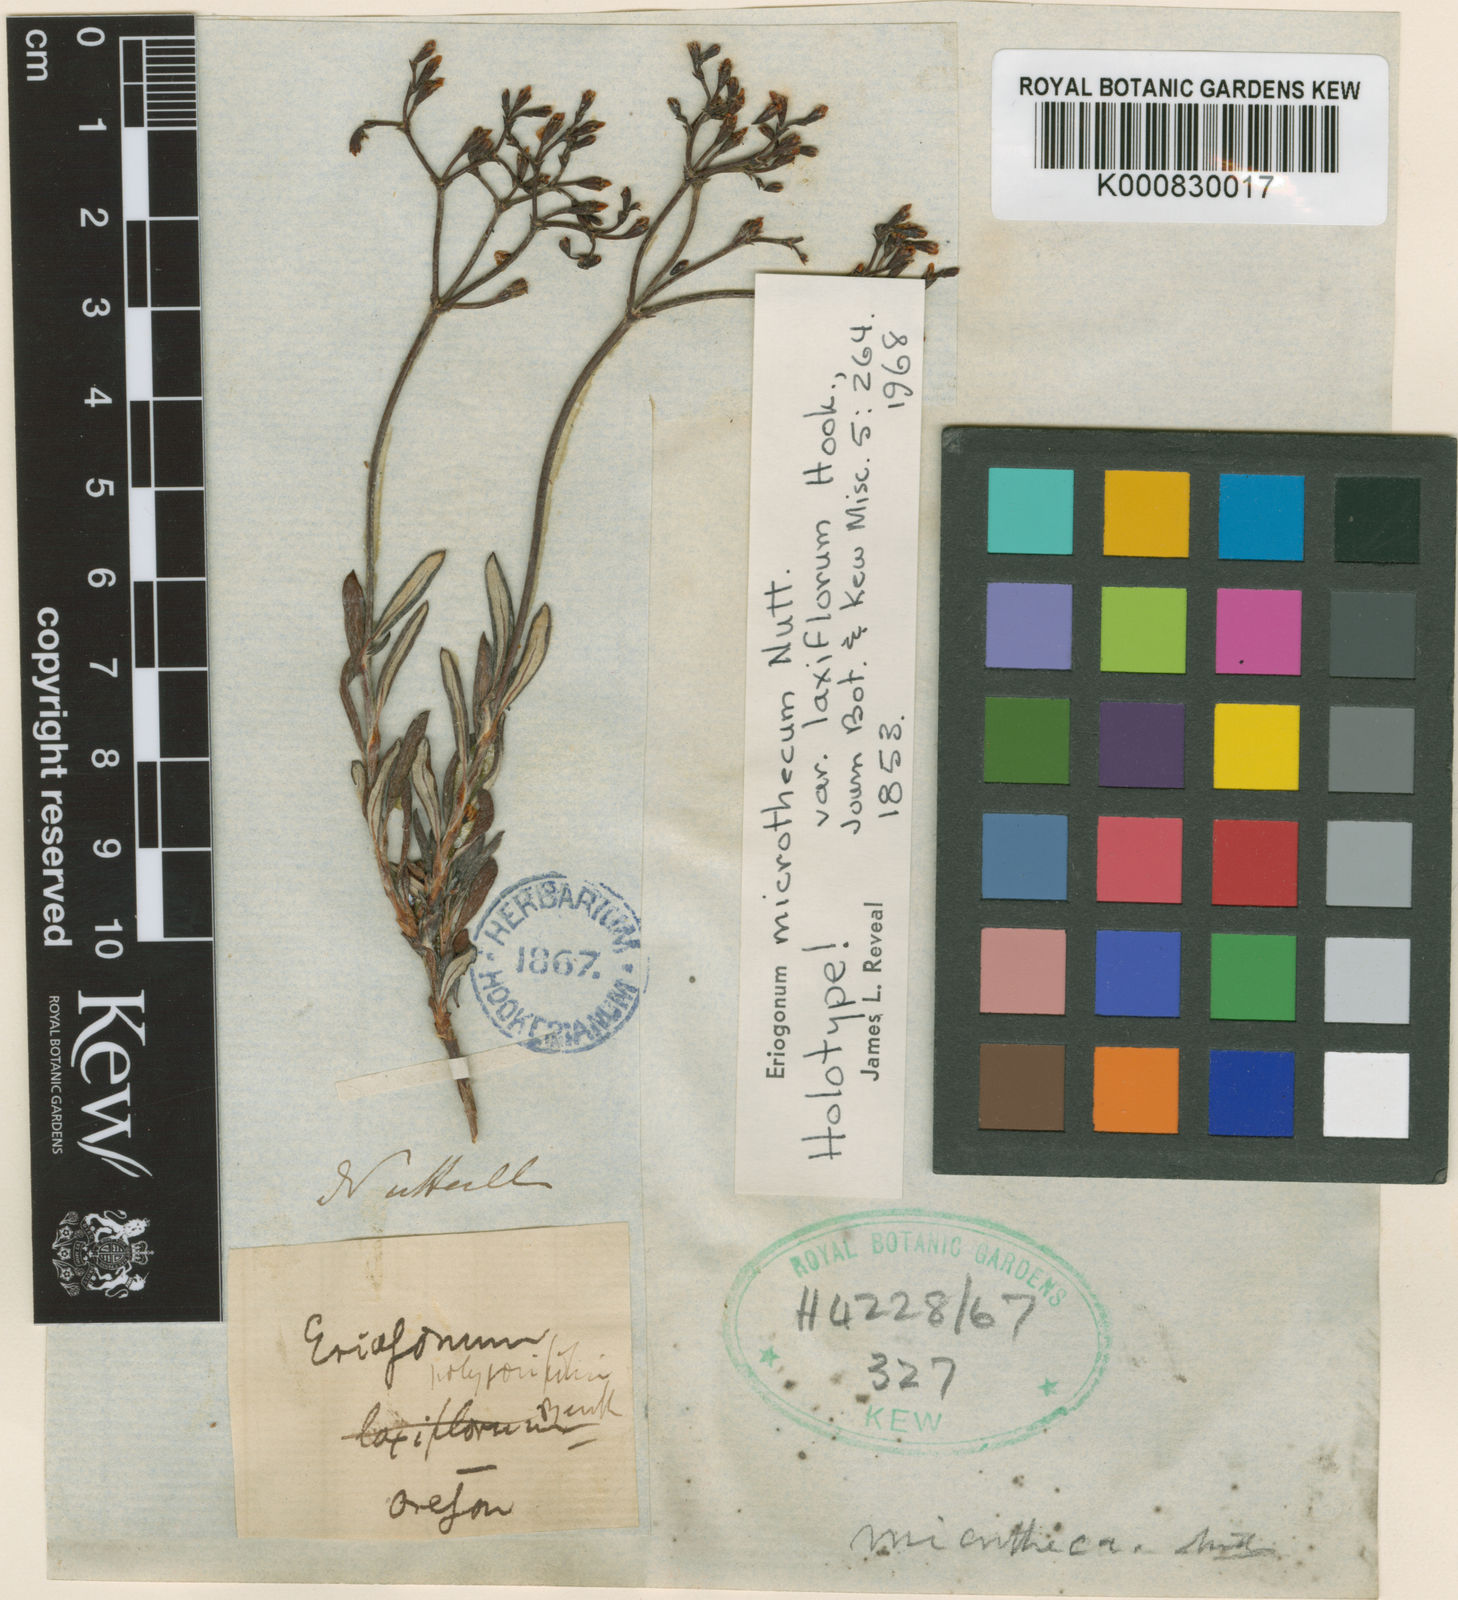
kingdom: Plantae
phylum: Tracheophyta
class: Magnoliopsida
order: Caryophyllales
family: Polygonaceae
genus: Eriogonum
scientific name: Eriogonum microtheca
